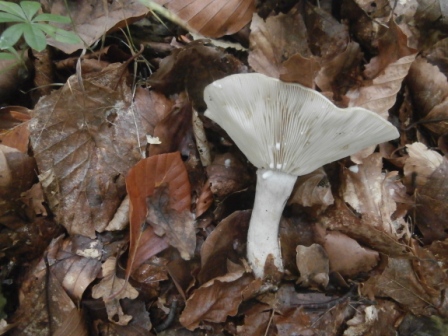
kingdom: Fungi
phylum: Basidiomycota
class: Agaricomycetes
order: Russulales
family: Russulaceae
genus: Lactarius
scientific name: Lactarius blennius
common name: dråbeplettet mælkehat
